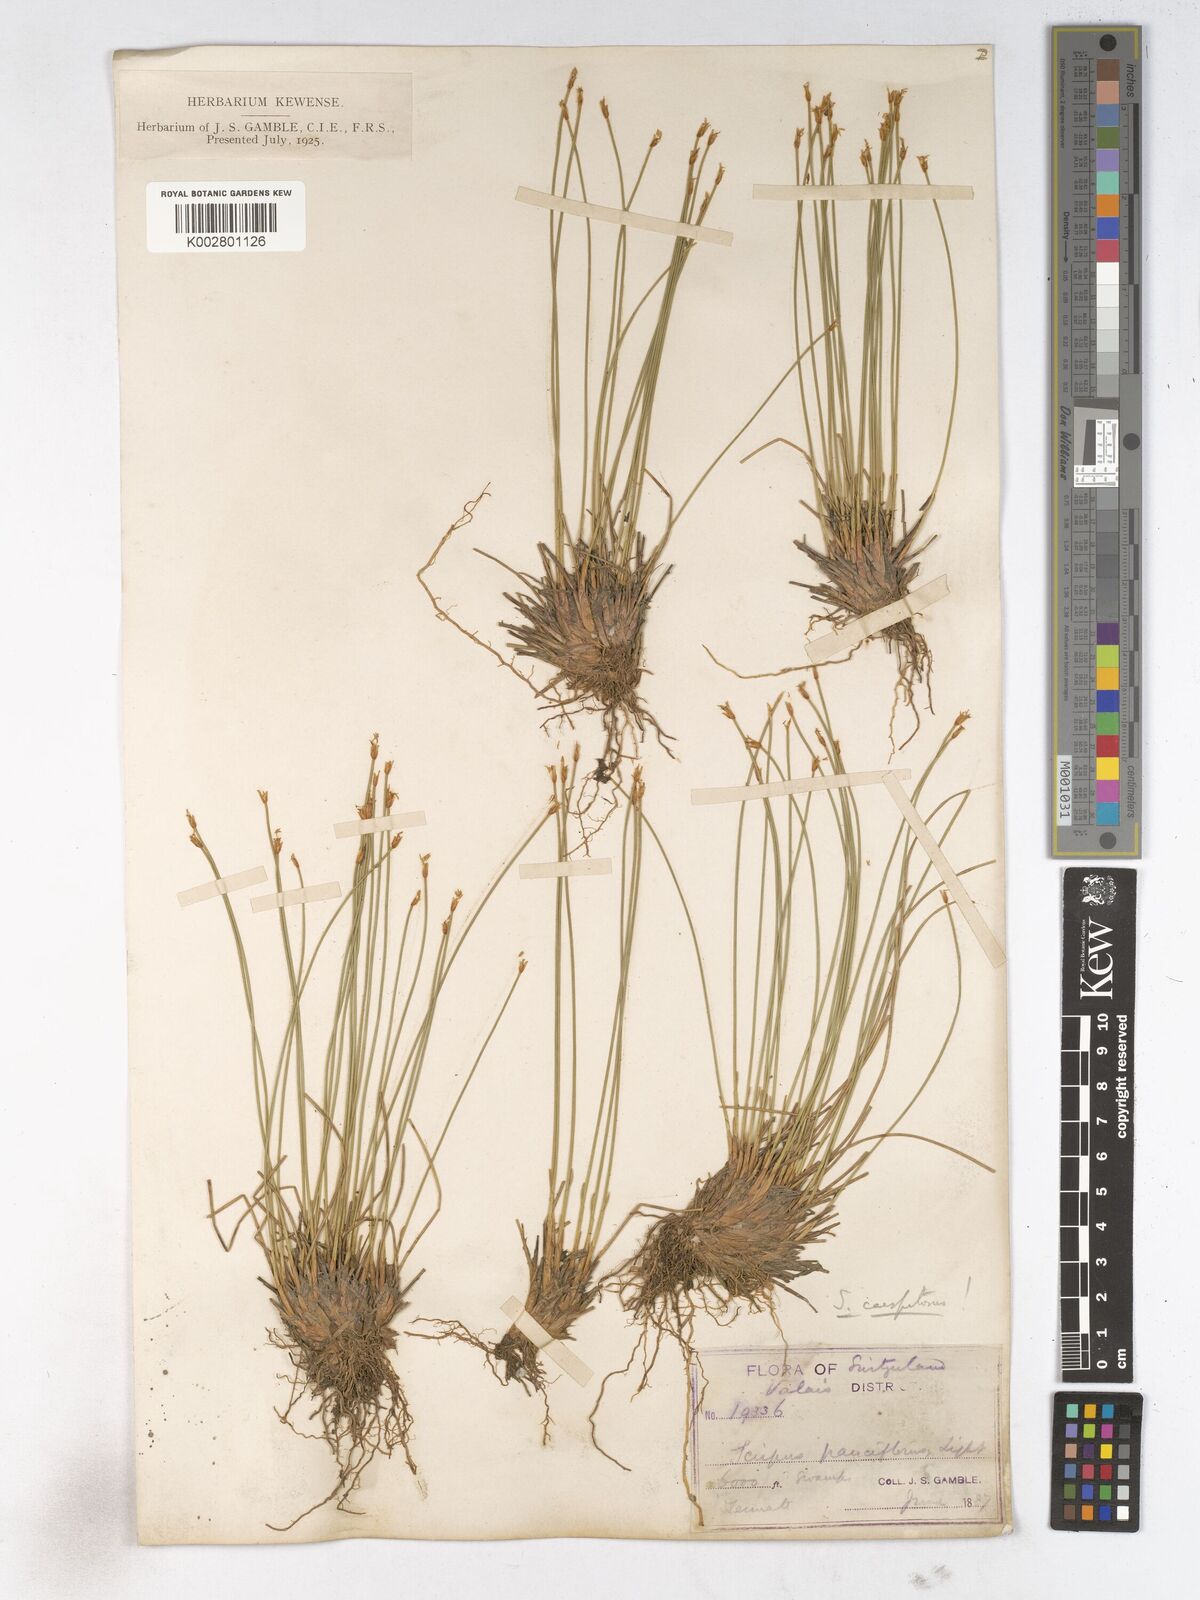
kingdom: Plantae
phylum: Tracheophyta
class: Liliopsida
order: Poales
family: Cyperaceae
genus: Trichophorum
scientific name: Trichophorum cespitosum
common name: Cespitose bulrush
